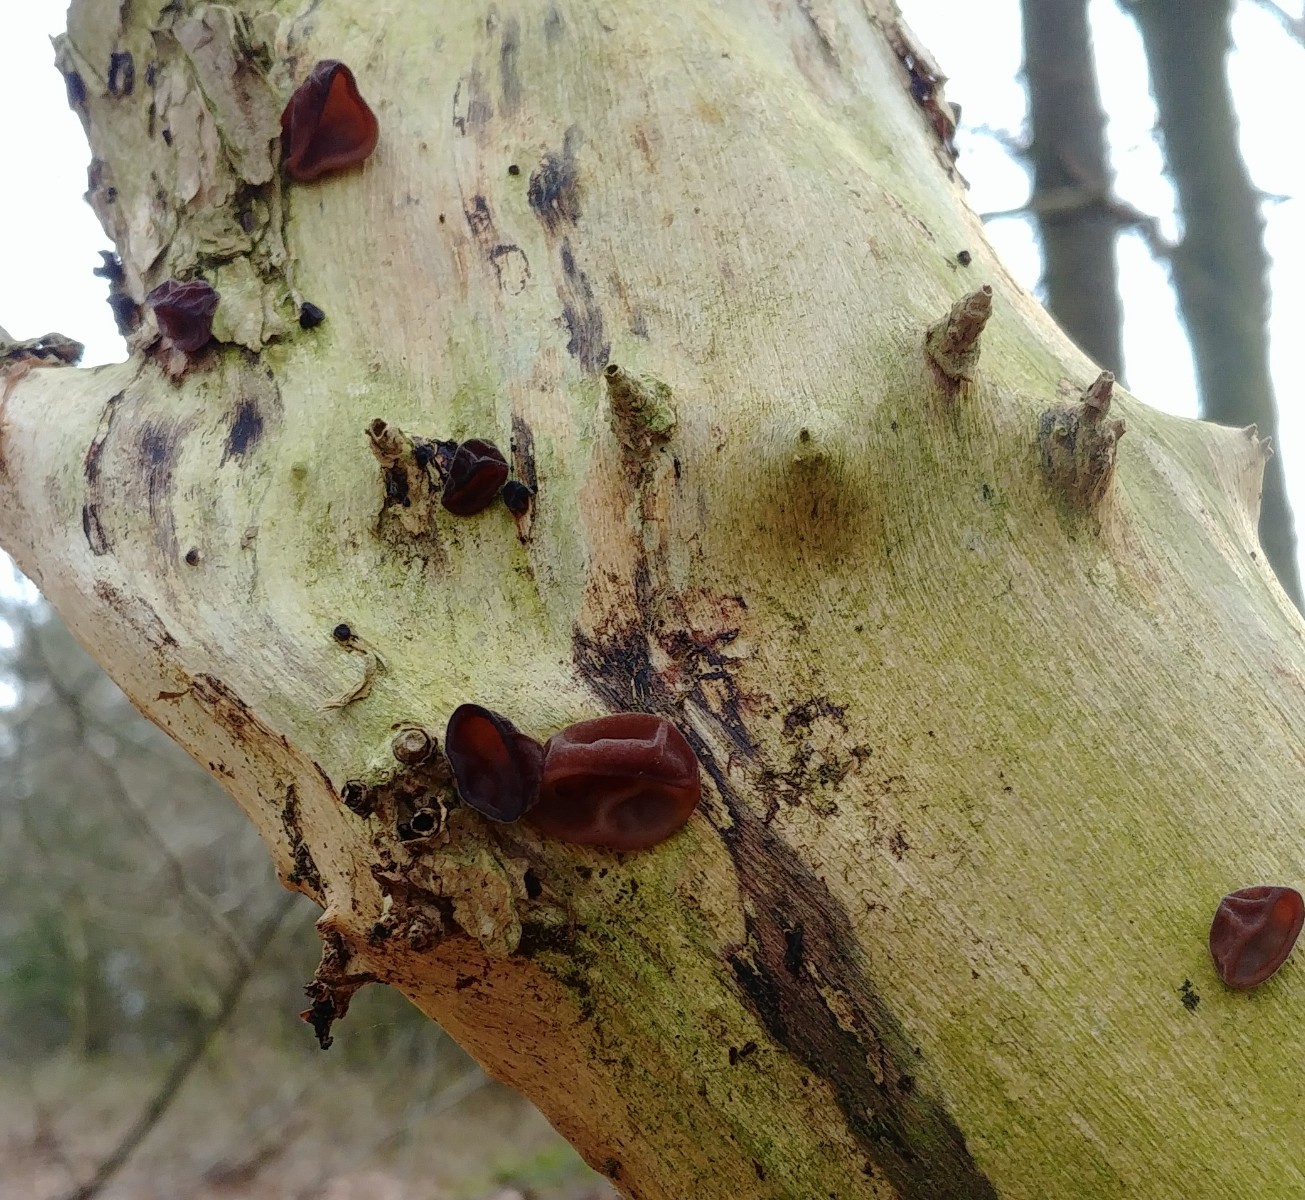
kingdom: Fungi
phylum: Basidiomycota
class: Agaricomycetes
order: Auriculariales
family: Auriculariaceae
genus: Auricularia
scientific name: Auricularia auricula-judae
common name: almindelig judasøre
